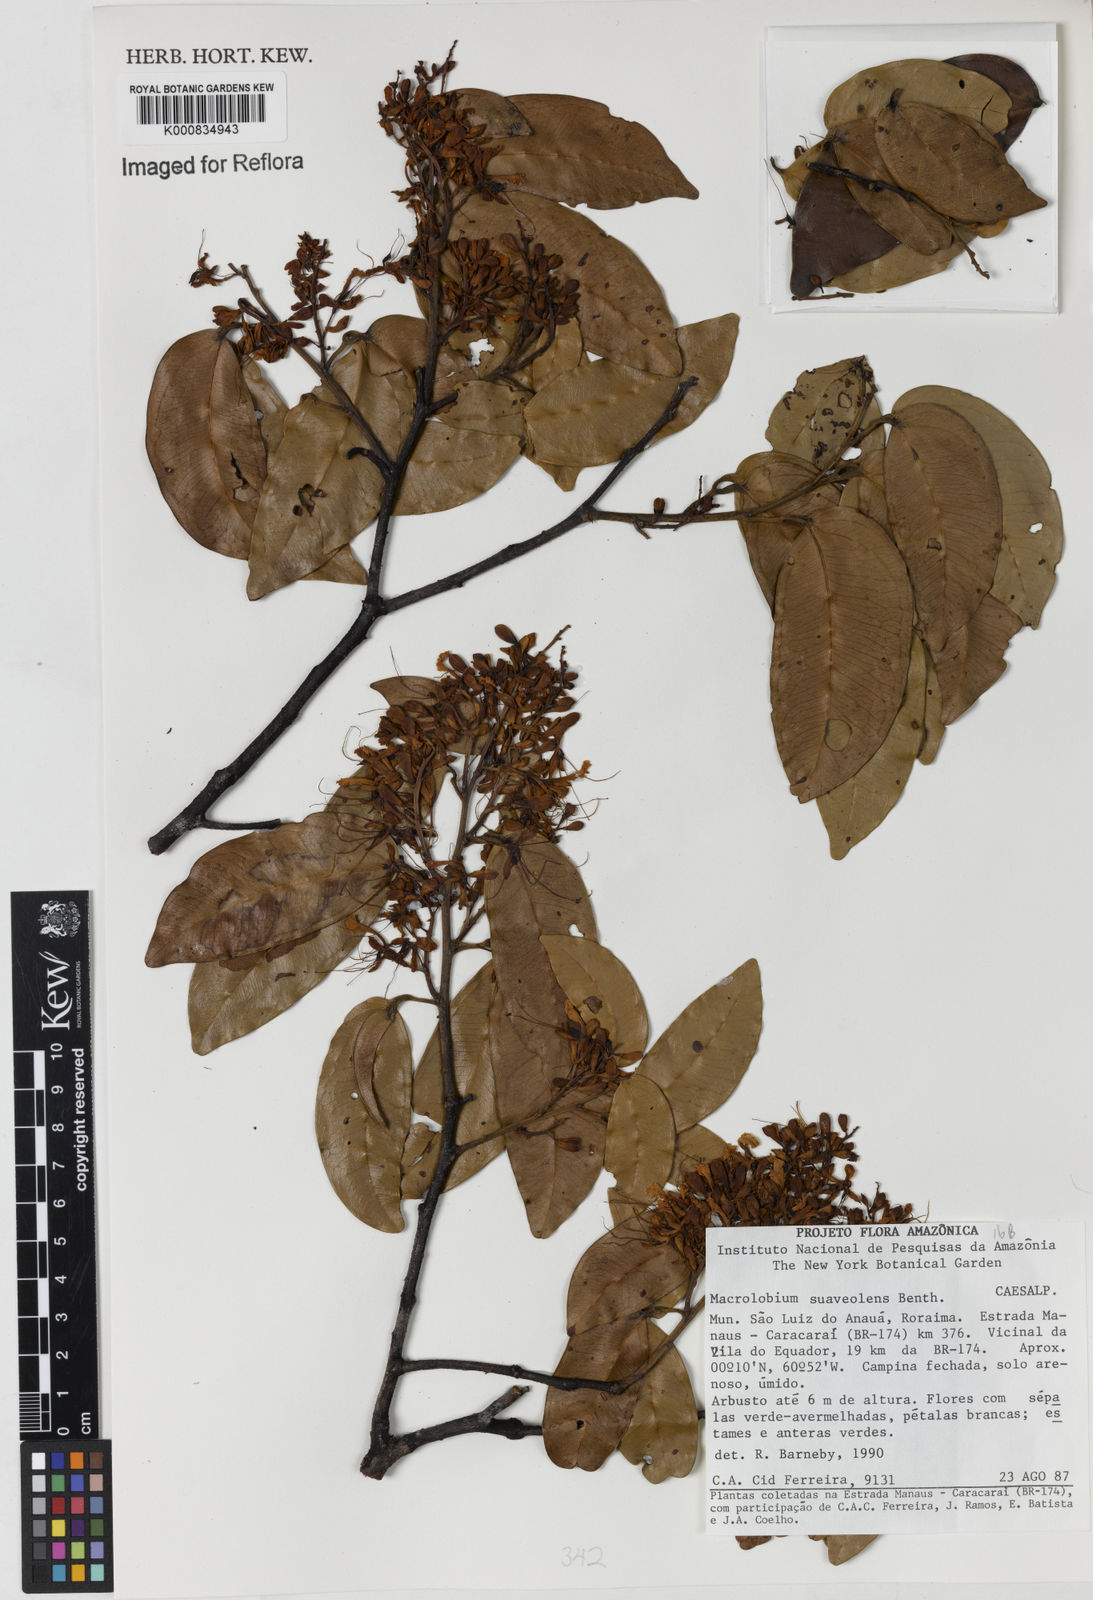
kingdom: Plantae
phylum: Tracheophyta
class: Magnoliopsida
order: Fabales
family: Fabaceae
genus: Macrolobium
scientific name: Macrolobium suaveolens
